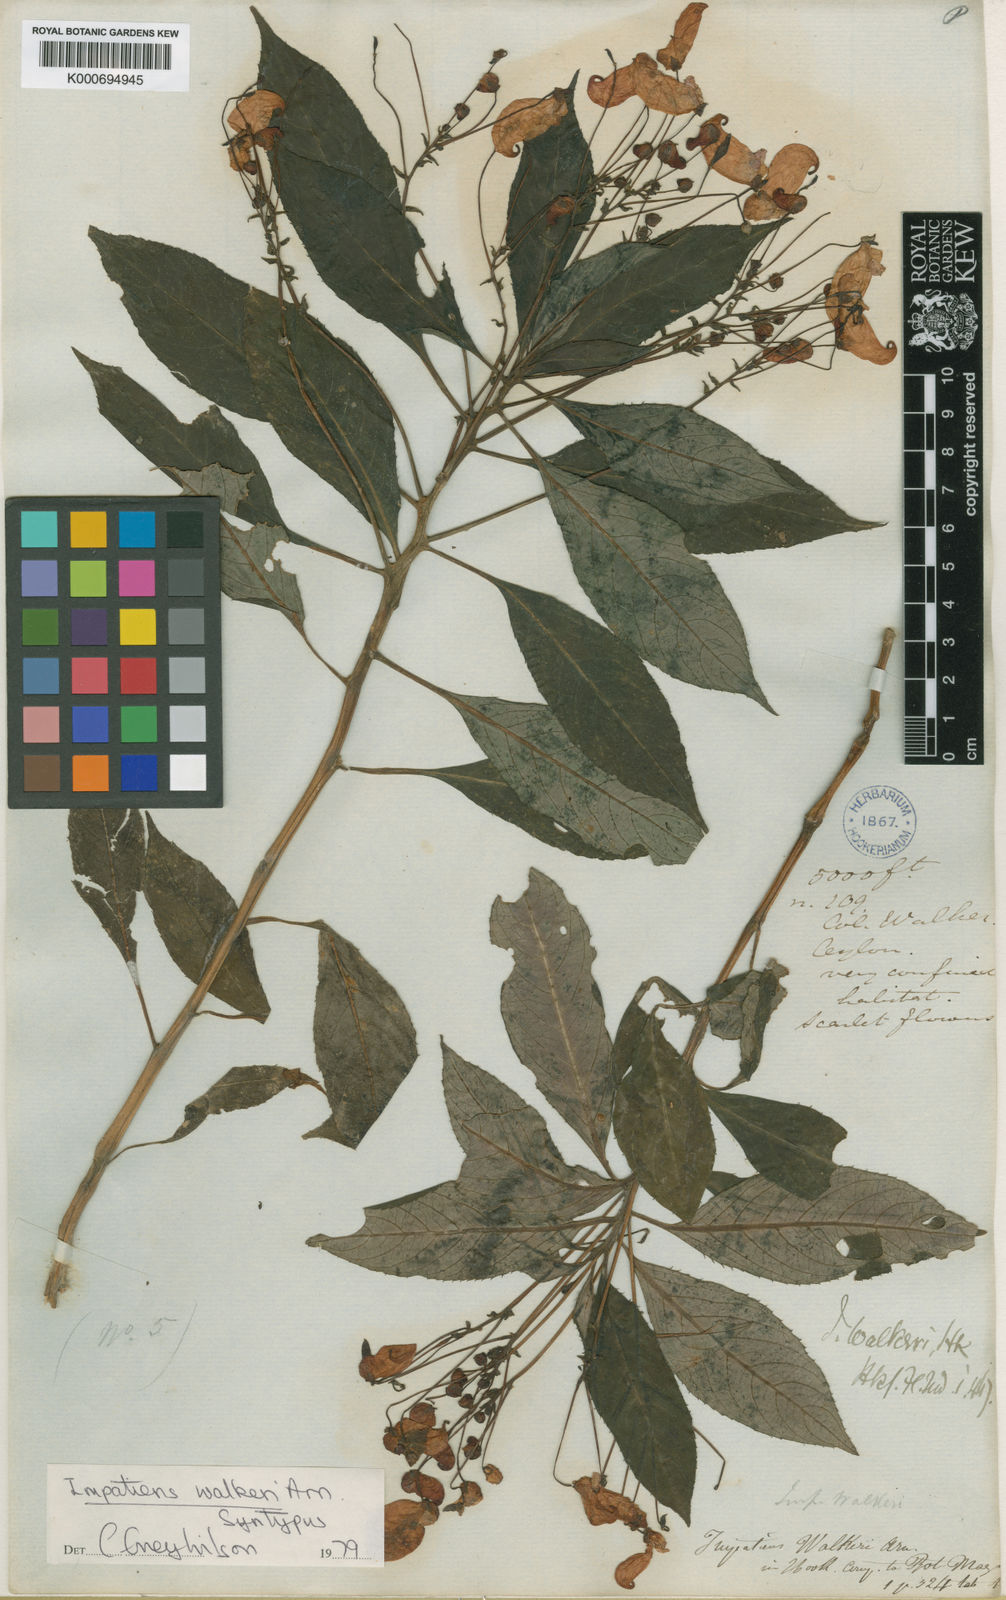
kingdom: Plantae
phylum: Tracheophyta
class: Magnoliopsida
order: Ericales
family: Balsaminaceae
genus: Impatiens
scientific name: Impatiens walkeri
